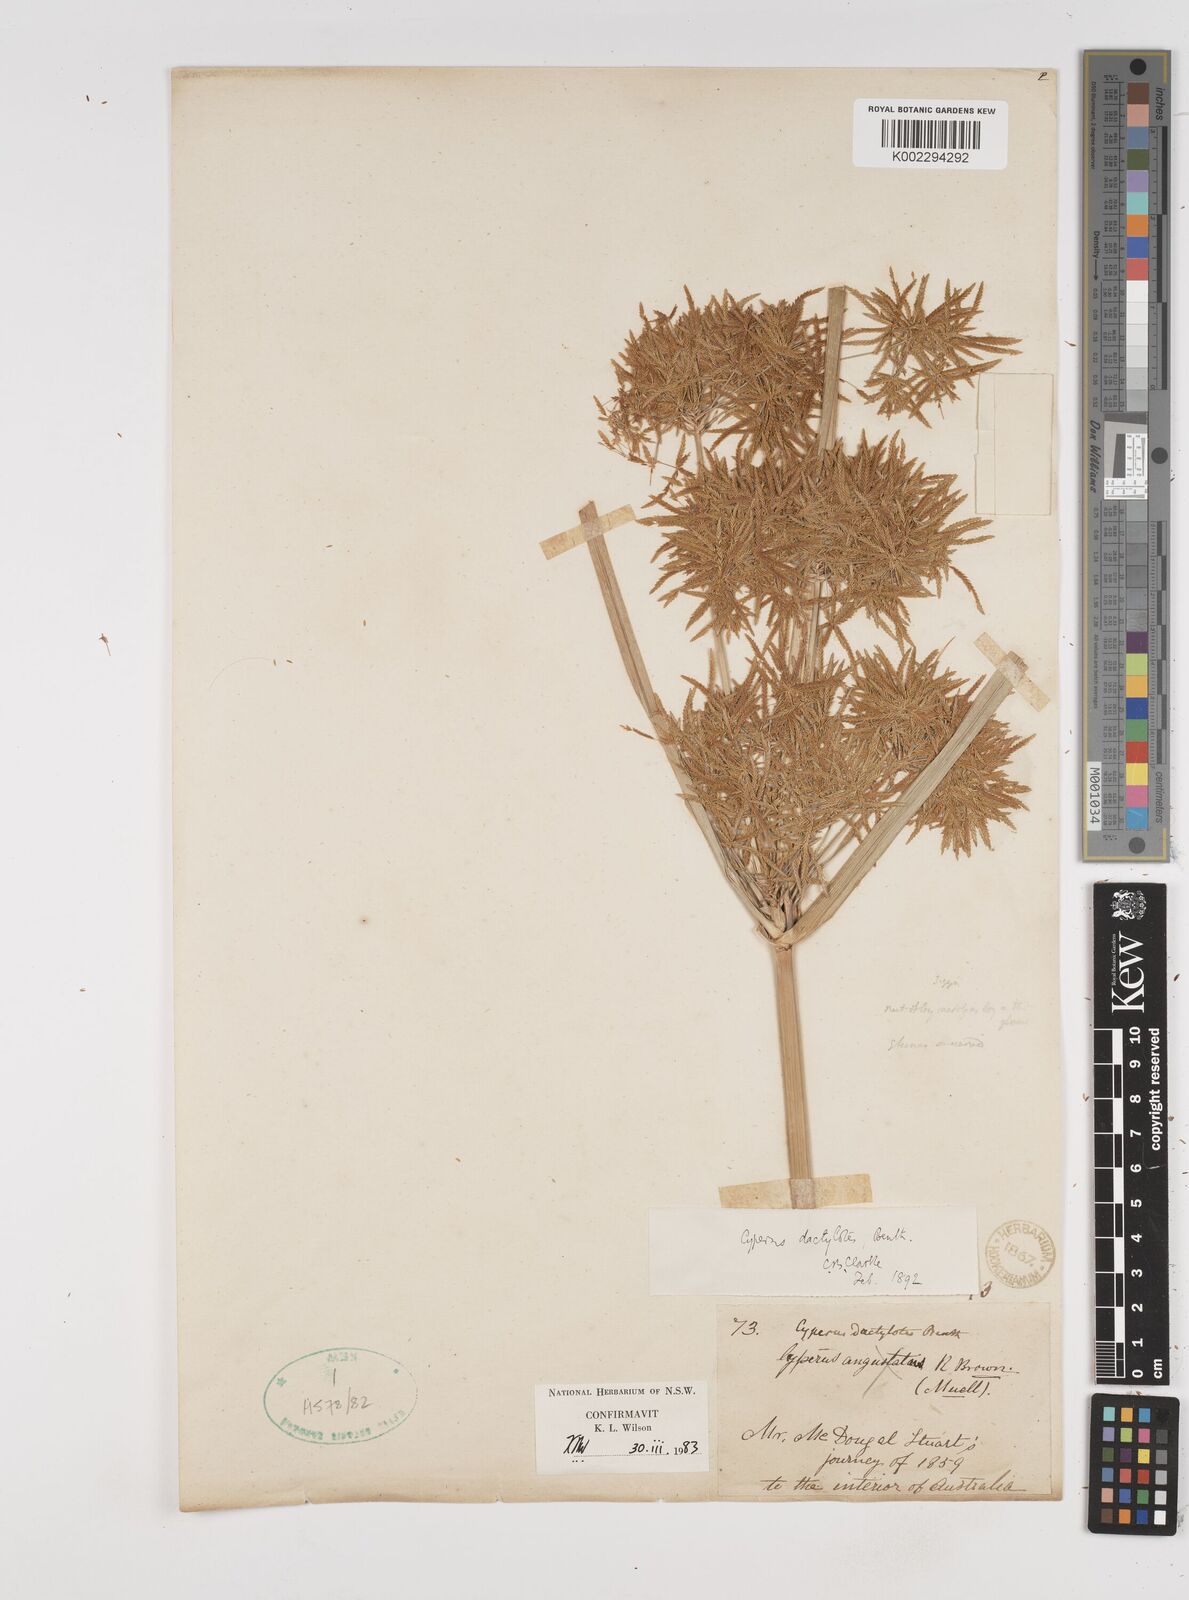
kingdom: Plantae
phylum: Tracheophyta
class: Liliopsida
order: Poales
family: Cyperaceae
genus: Cyperus
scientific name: Cyperus dactylotes
